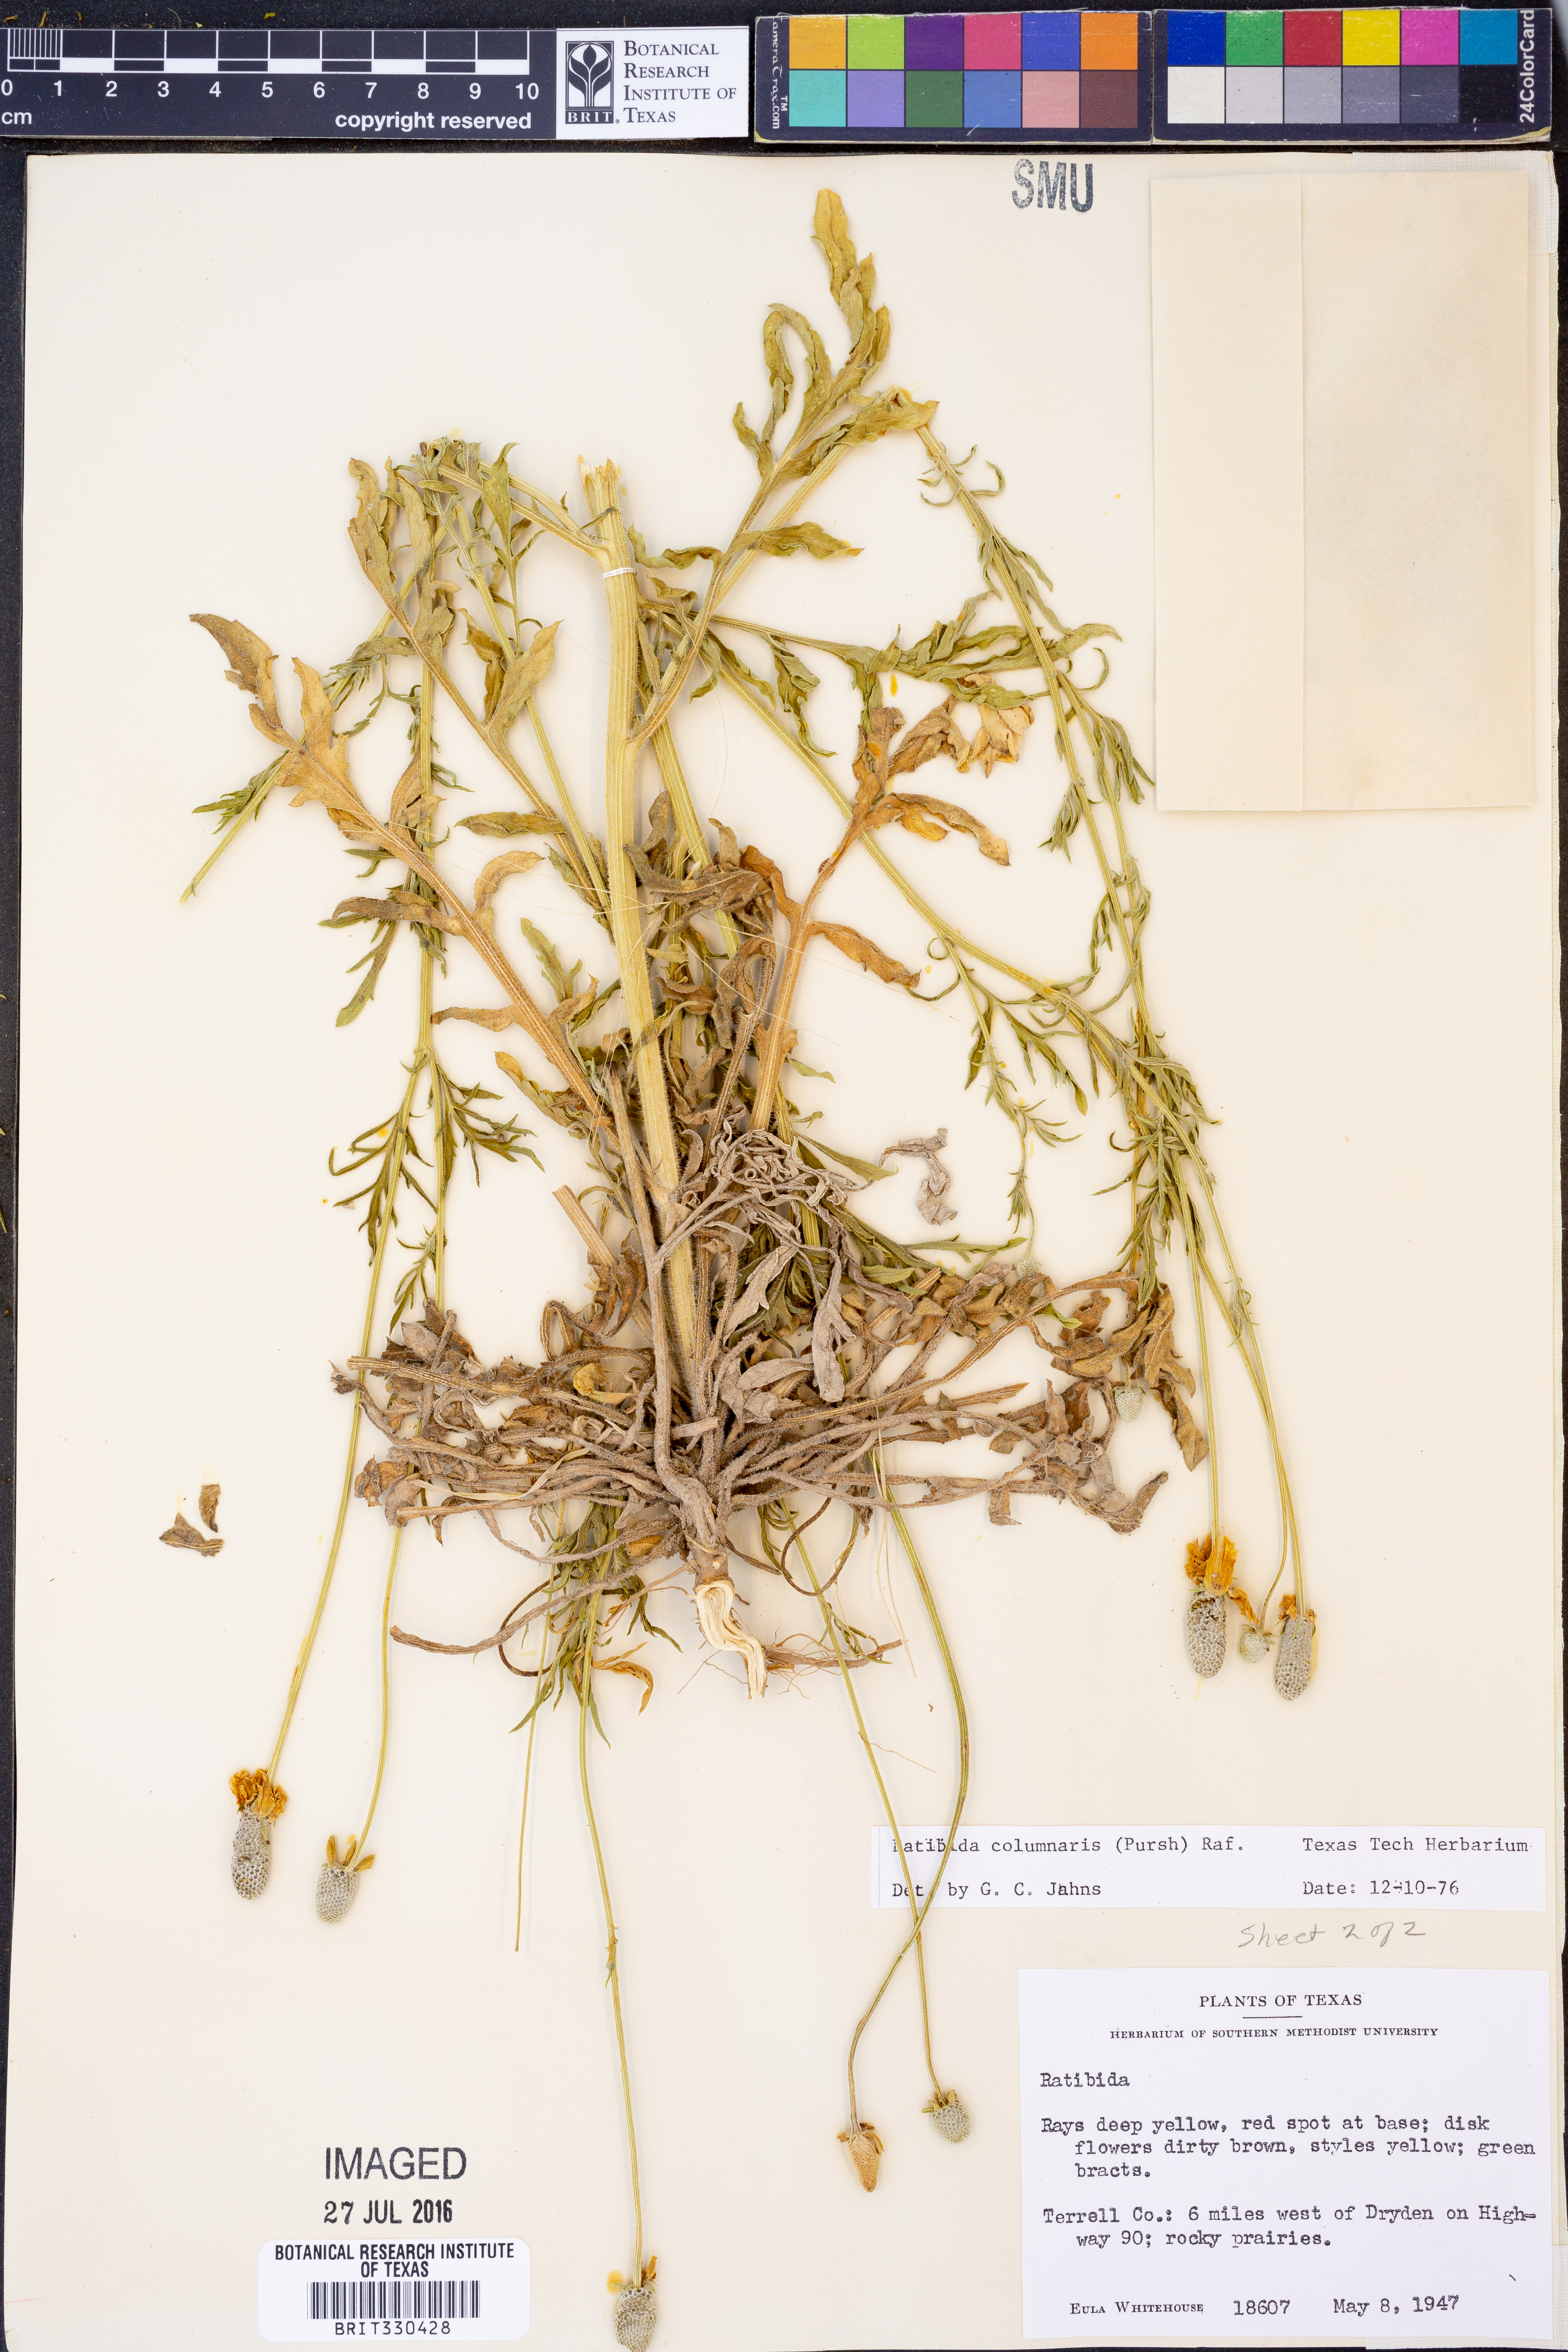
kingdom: Plantae
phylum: Tracheophyta
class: Magnoliopsida
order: Asterales
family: Asteraceae
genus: Ratibida
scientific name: Ratibida columnifera
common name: Prairie coneflower
